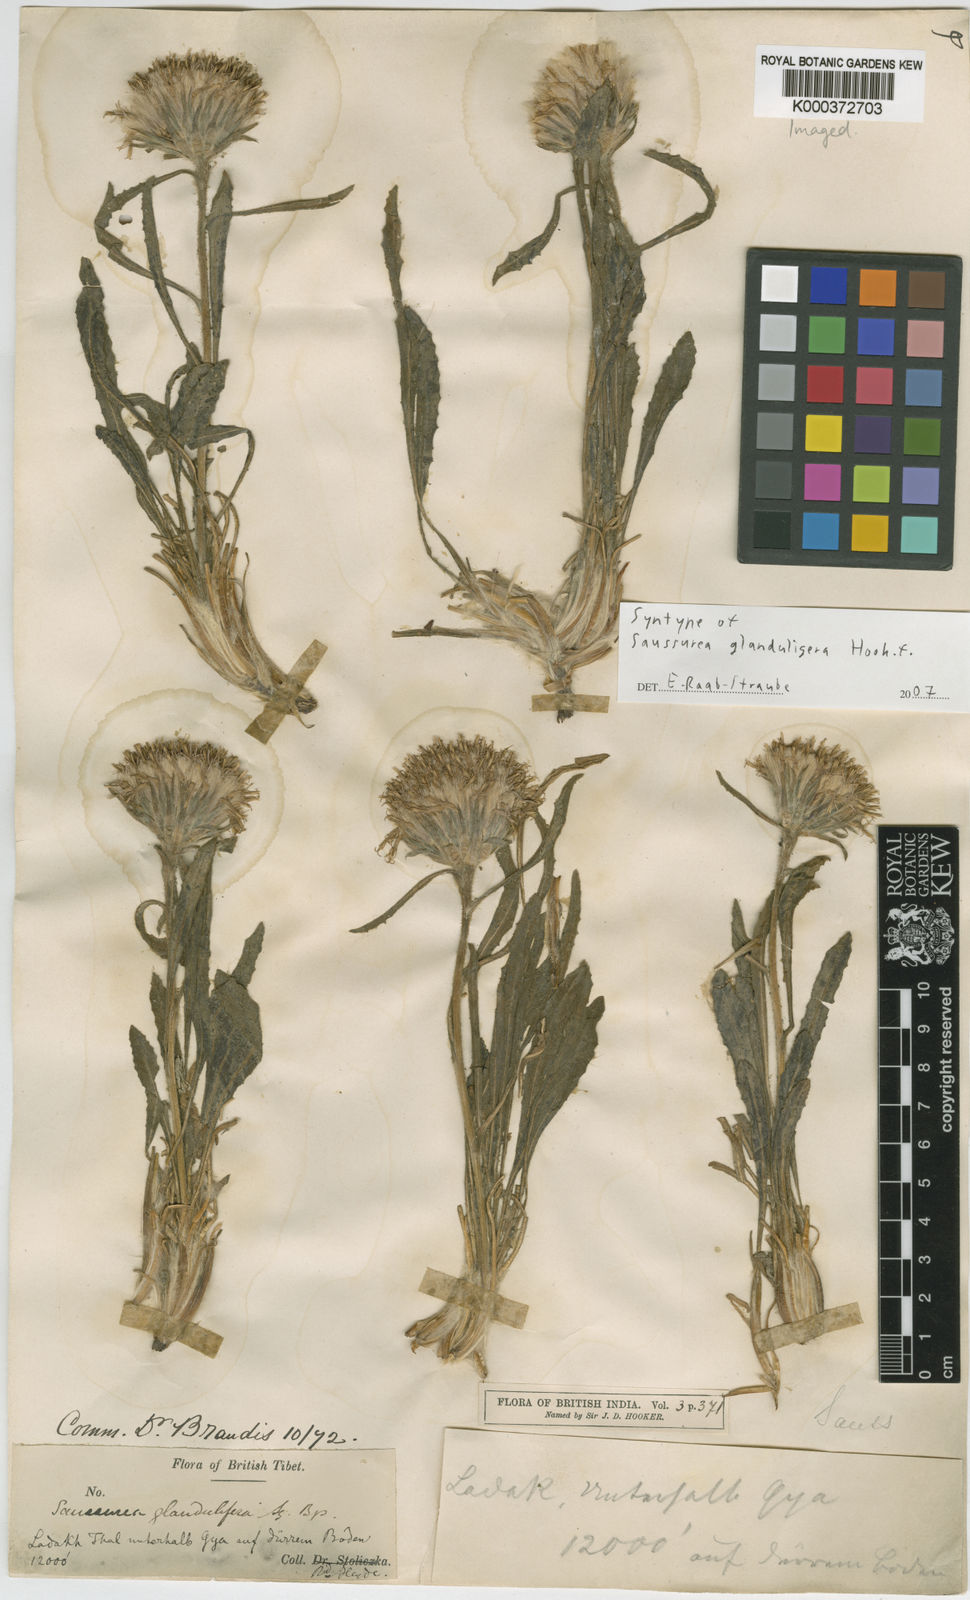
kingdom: Plantae
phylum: Tracheophyta
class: Magnoliopsida
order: Asterales
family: Asteraceae
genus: Saussurea
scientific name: Saussurea schlagintweitii
